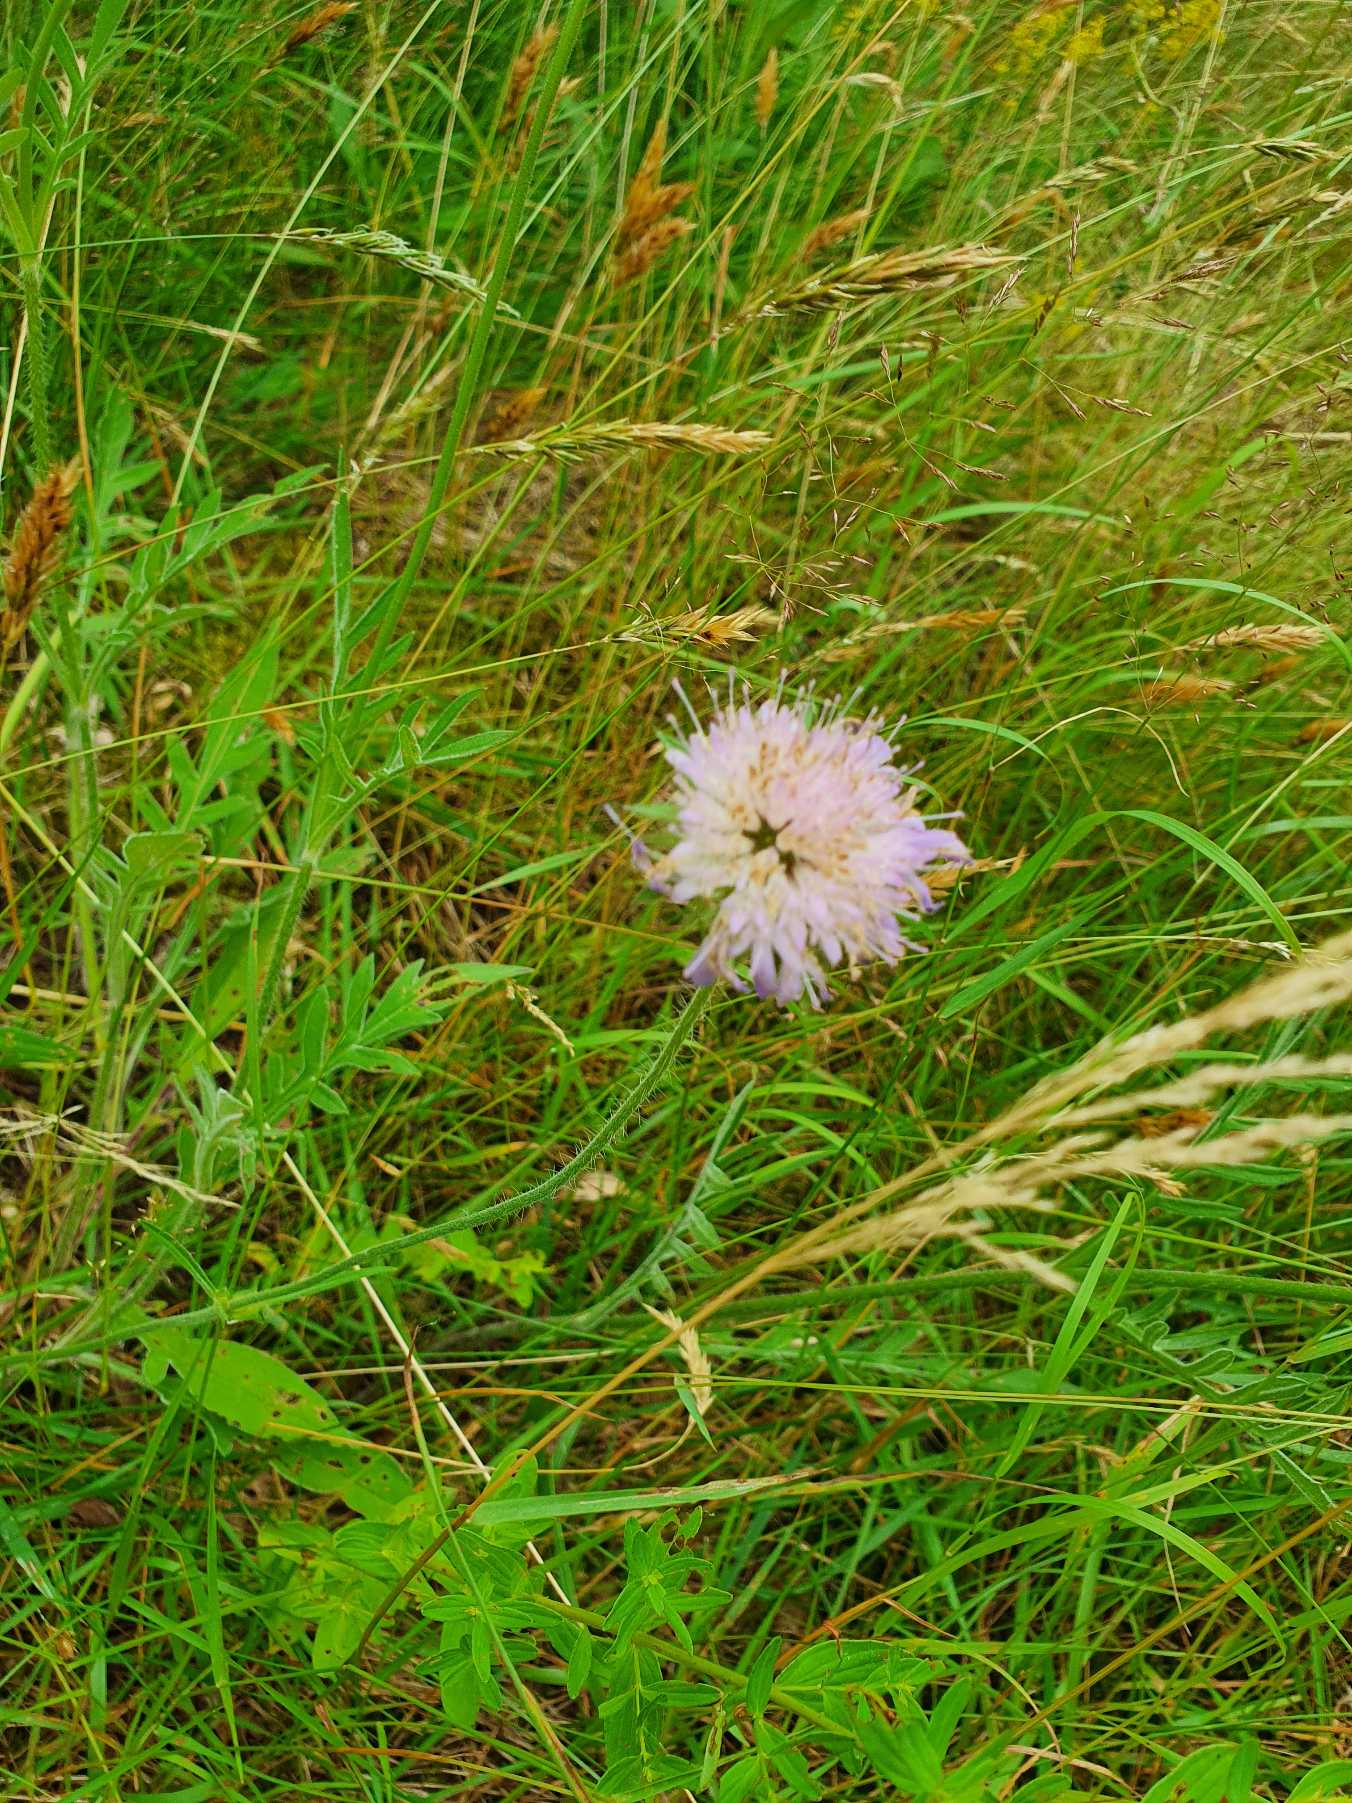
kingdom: Plantae
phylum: Tracheophyta
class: Magnoliopsida
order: Dipsacales
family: Caprifoliaceae
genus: Knautia
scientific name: Knautia arvensis
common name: Blåhat
